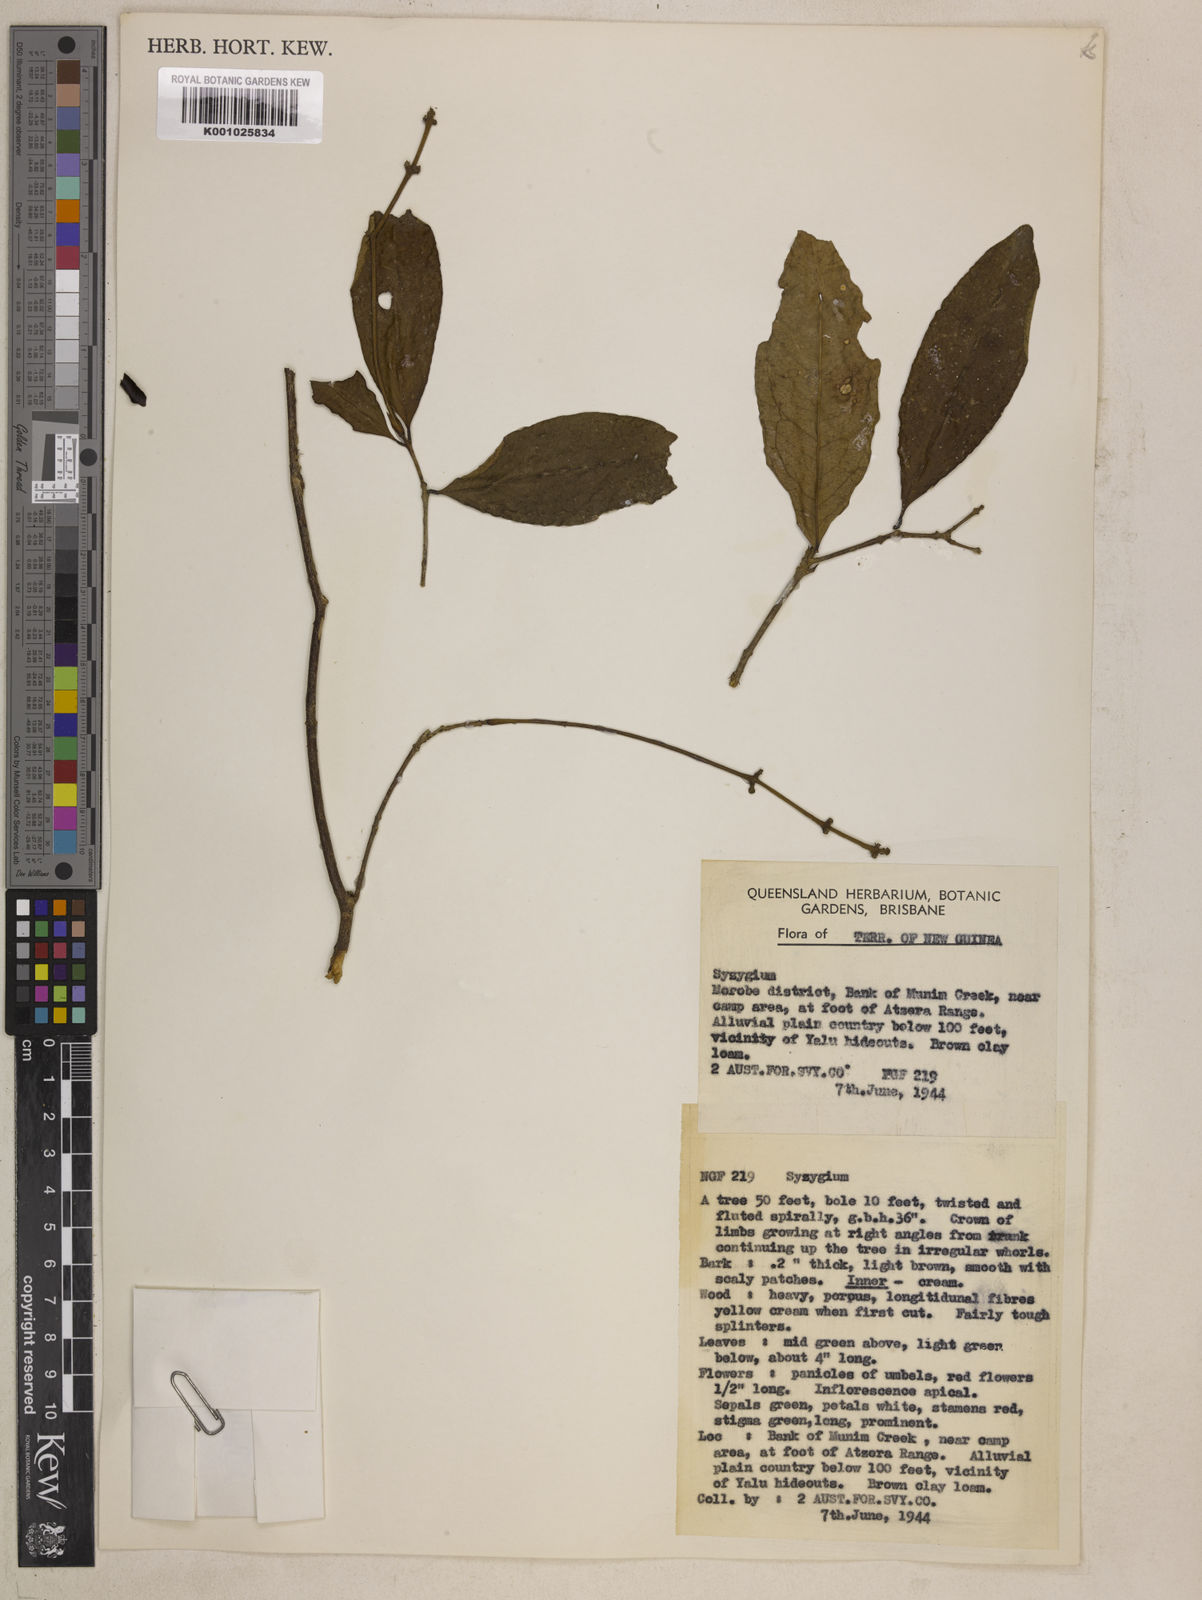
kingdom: Plantae
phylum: Tracheophyta
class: Magnoliopsida
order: Myrtales
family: Myrtaceae
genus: Syzygium
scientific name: Syzygium trachyanthum
